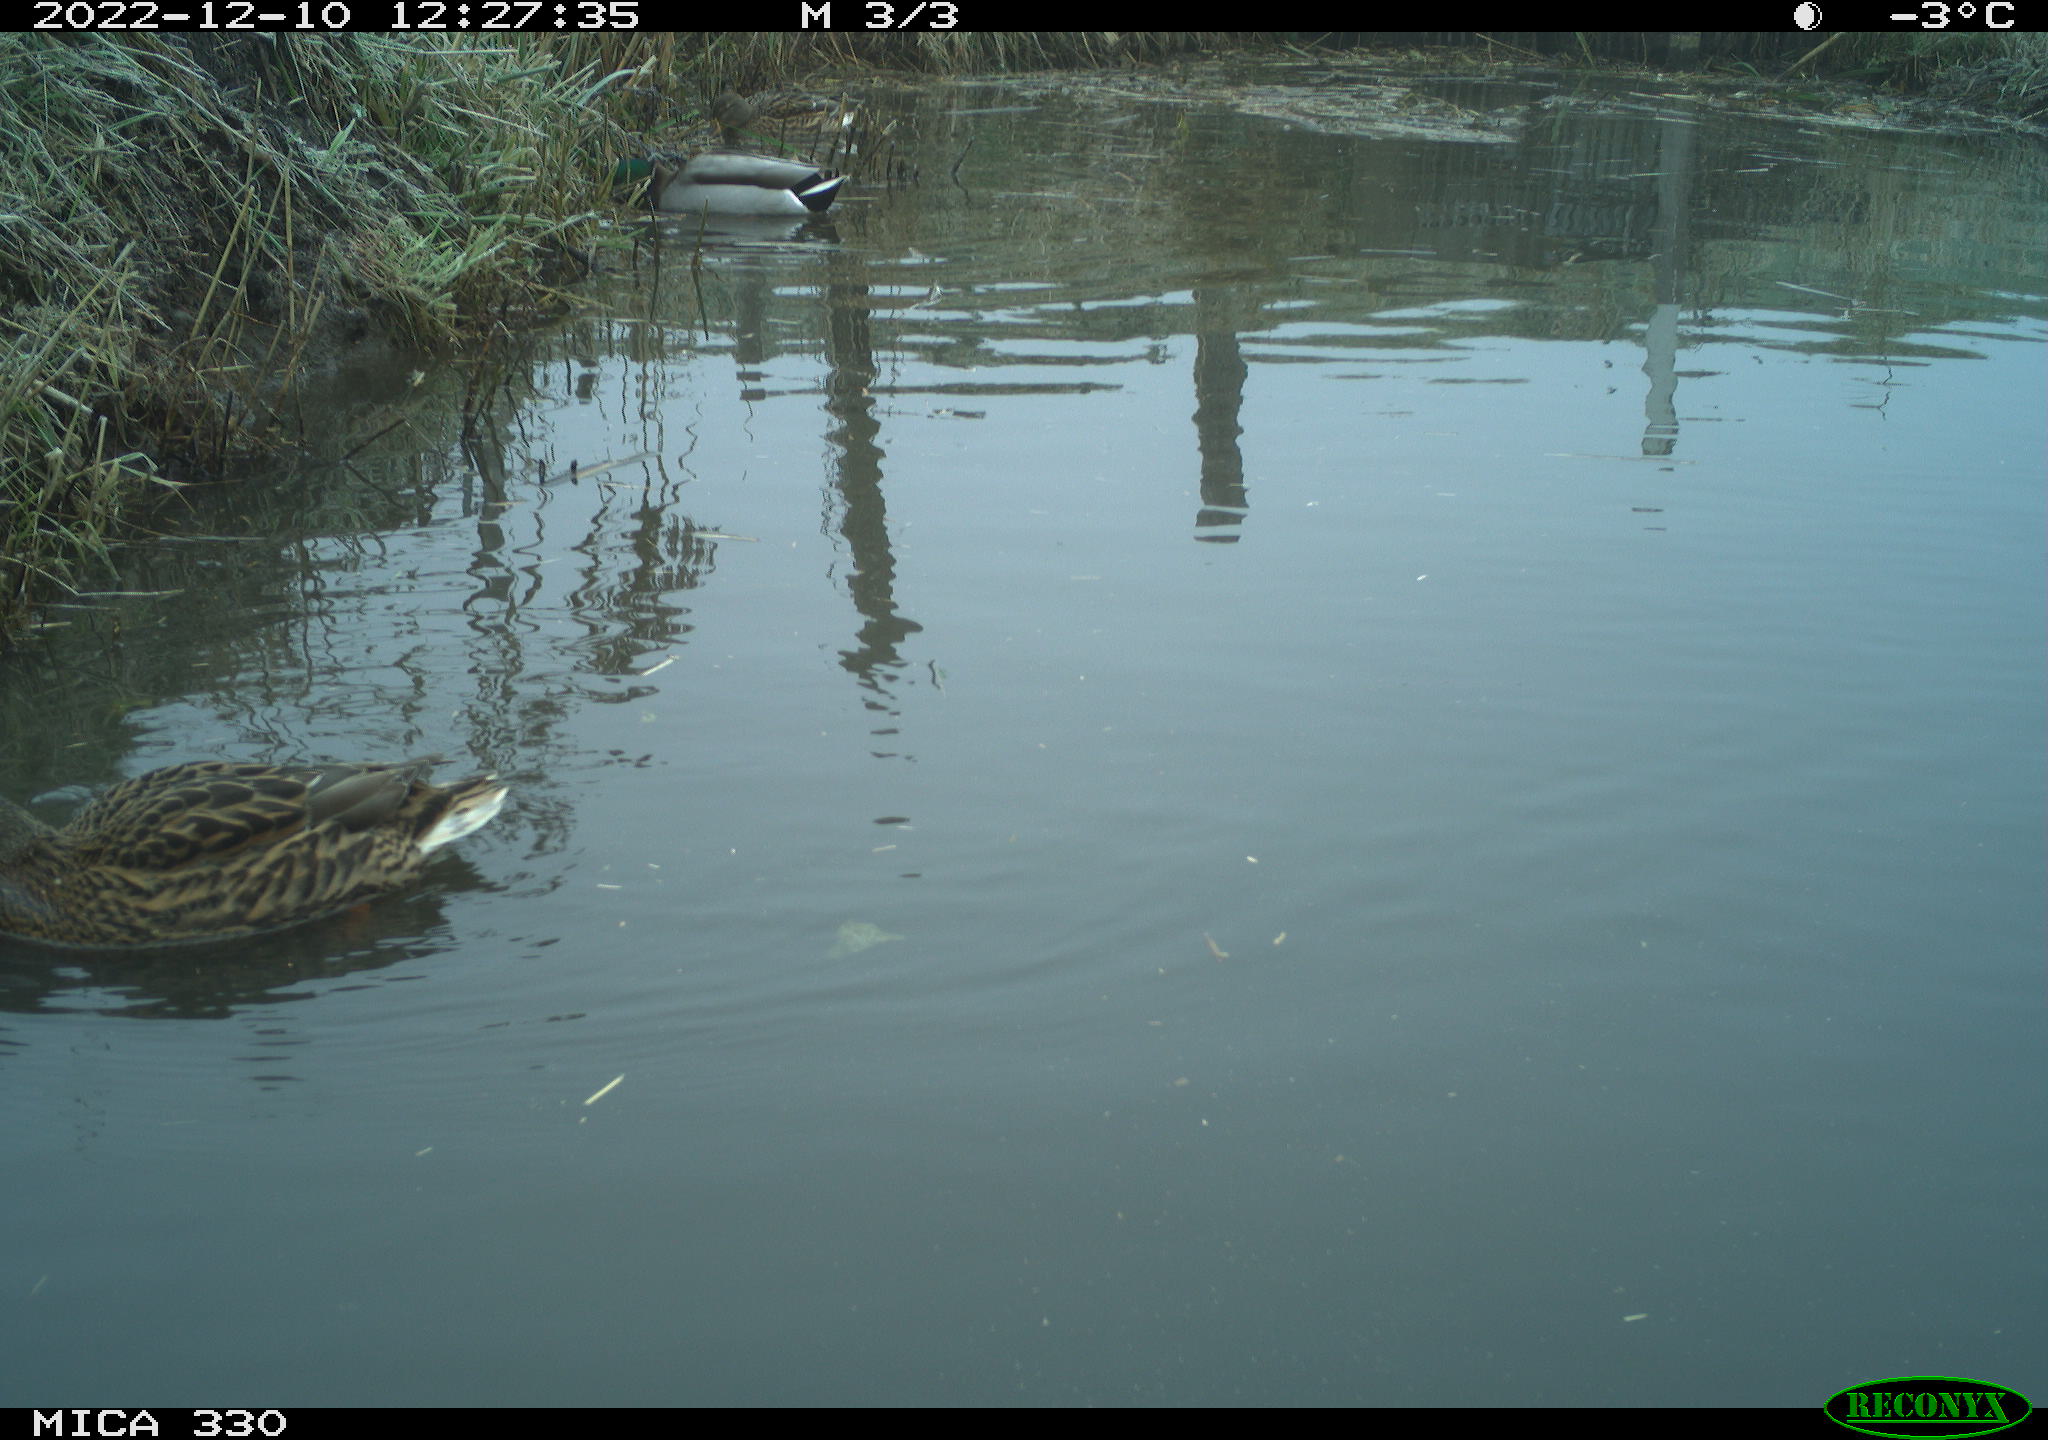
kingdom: Animalia
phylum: Chordata
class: Aves
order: Anseriformes
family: Anatidae
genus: Anas
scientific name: Anas
